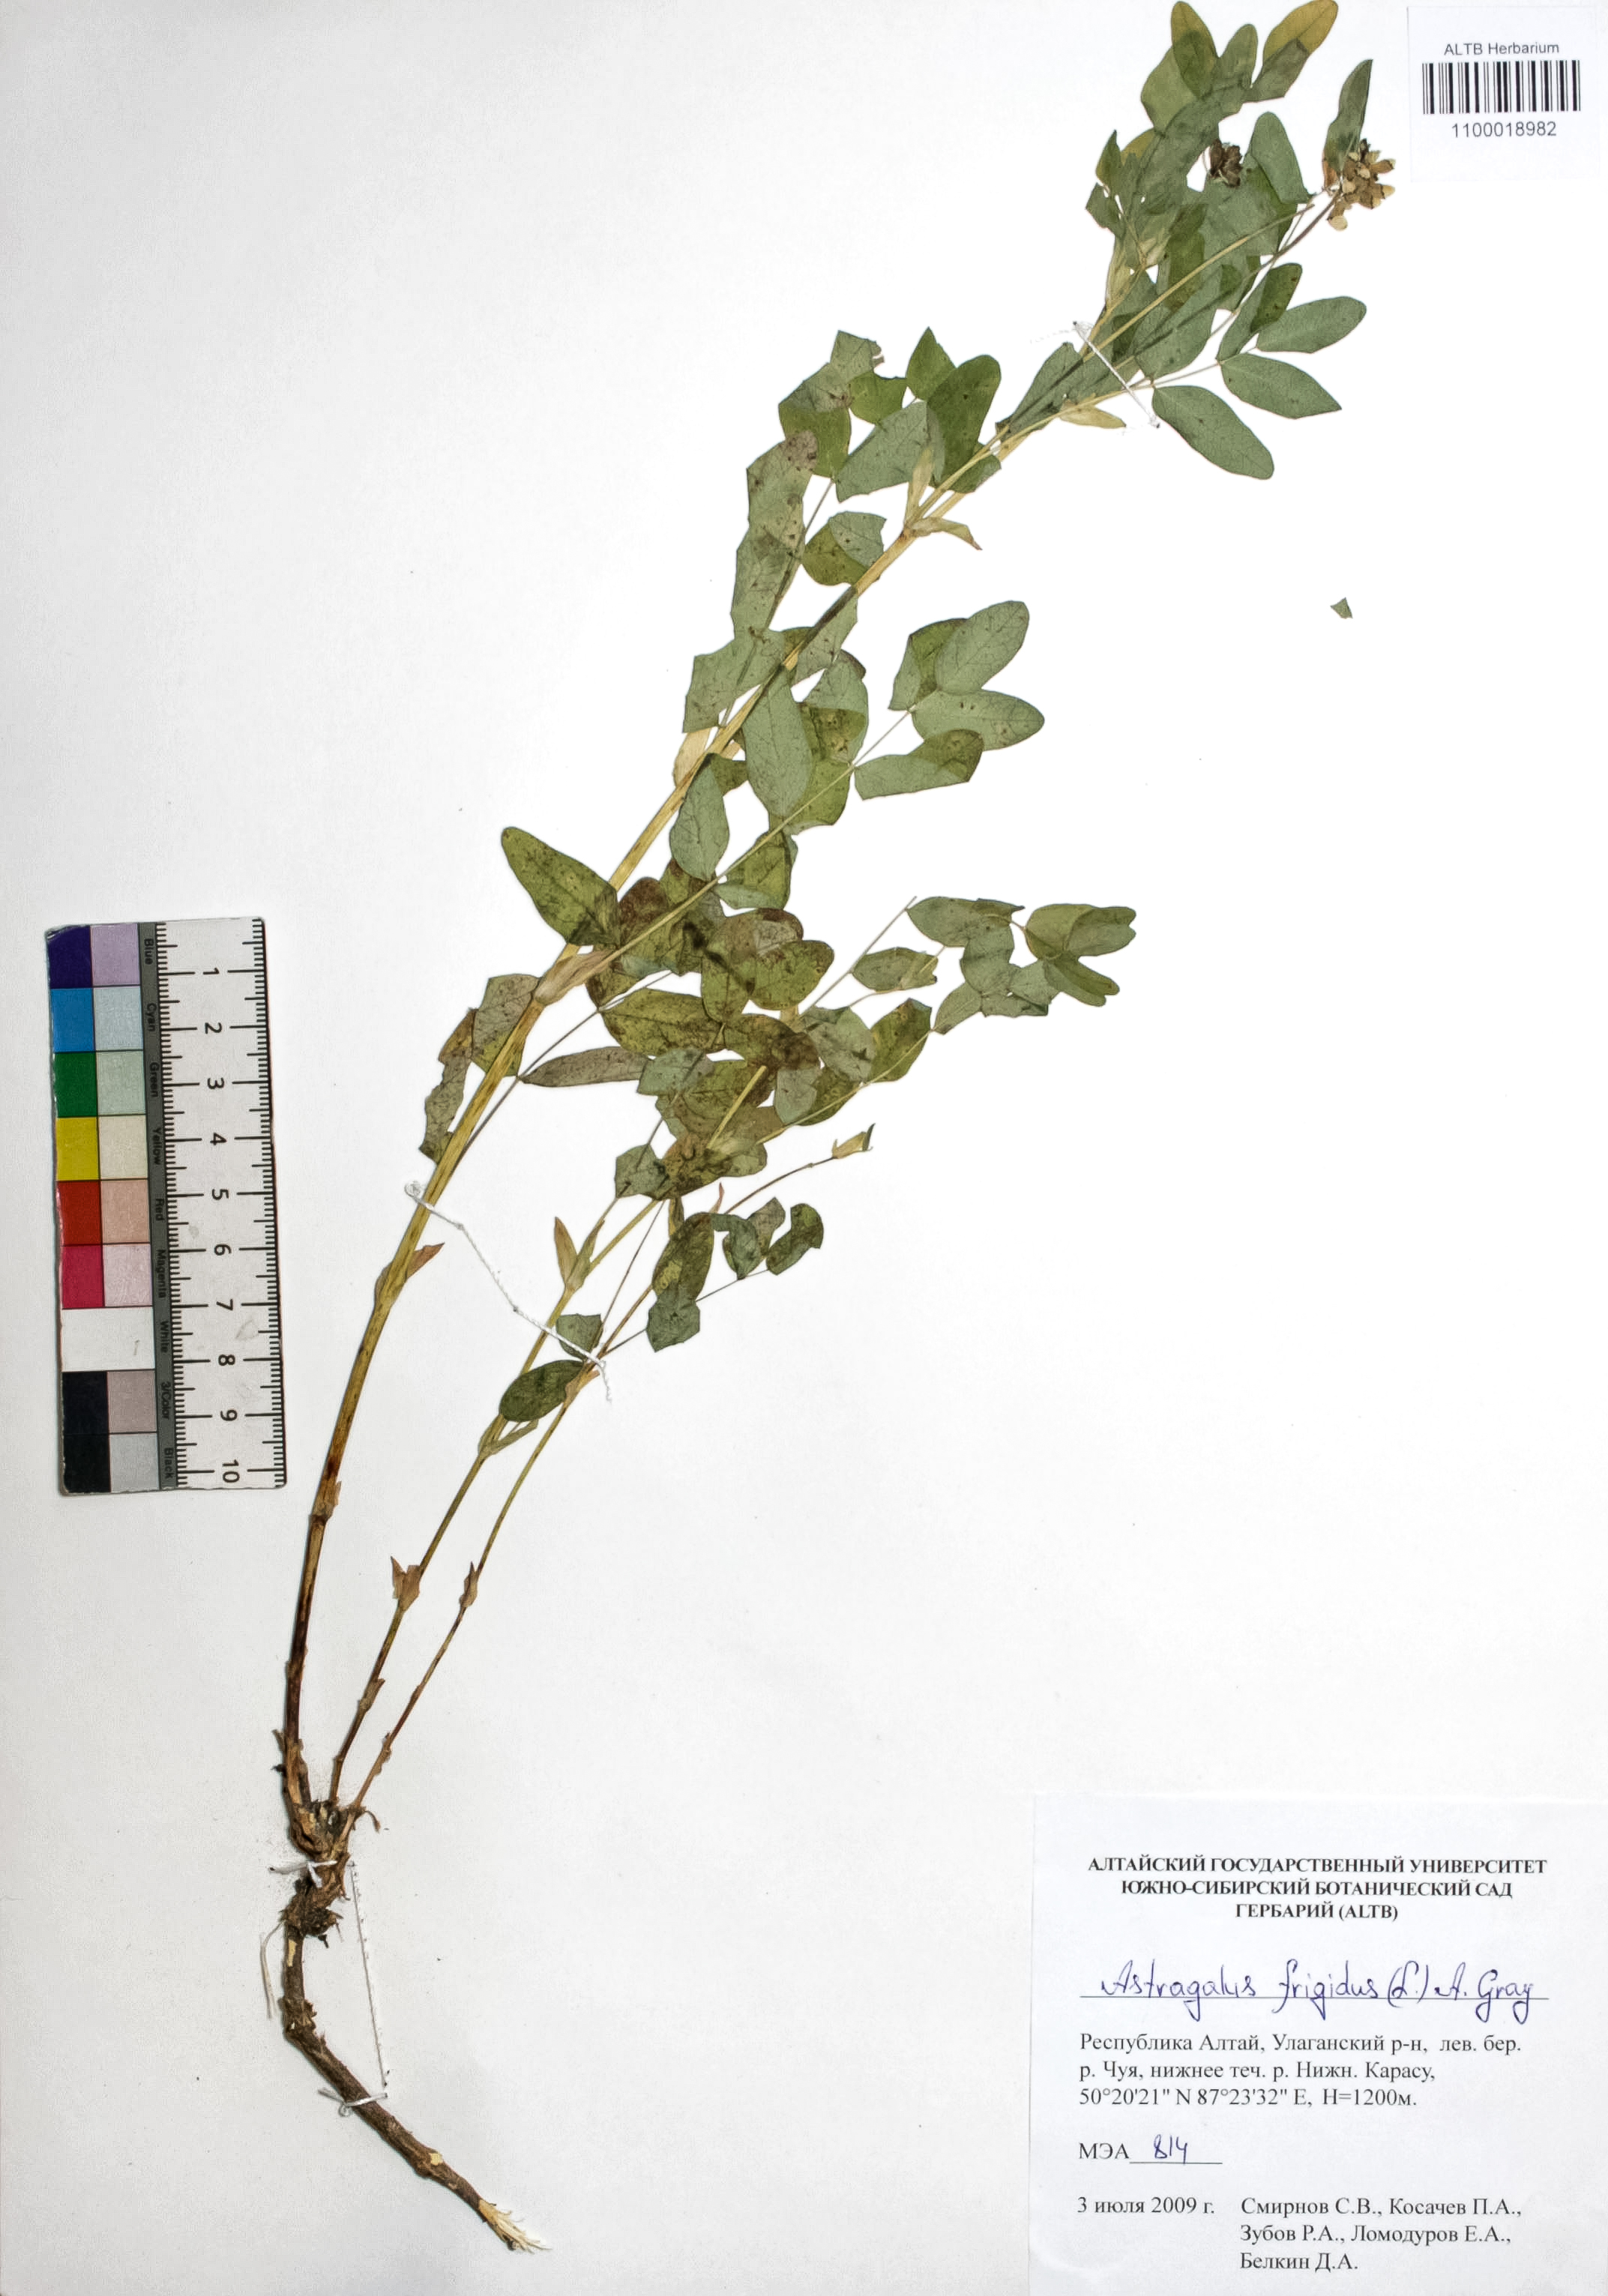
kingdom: Plantae
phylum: Tracheophyta
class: Magnoliopsida
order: Fabales
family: Fabaceae
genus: Astragalus
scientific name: Astragalus frigidus
